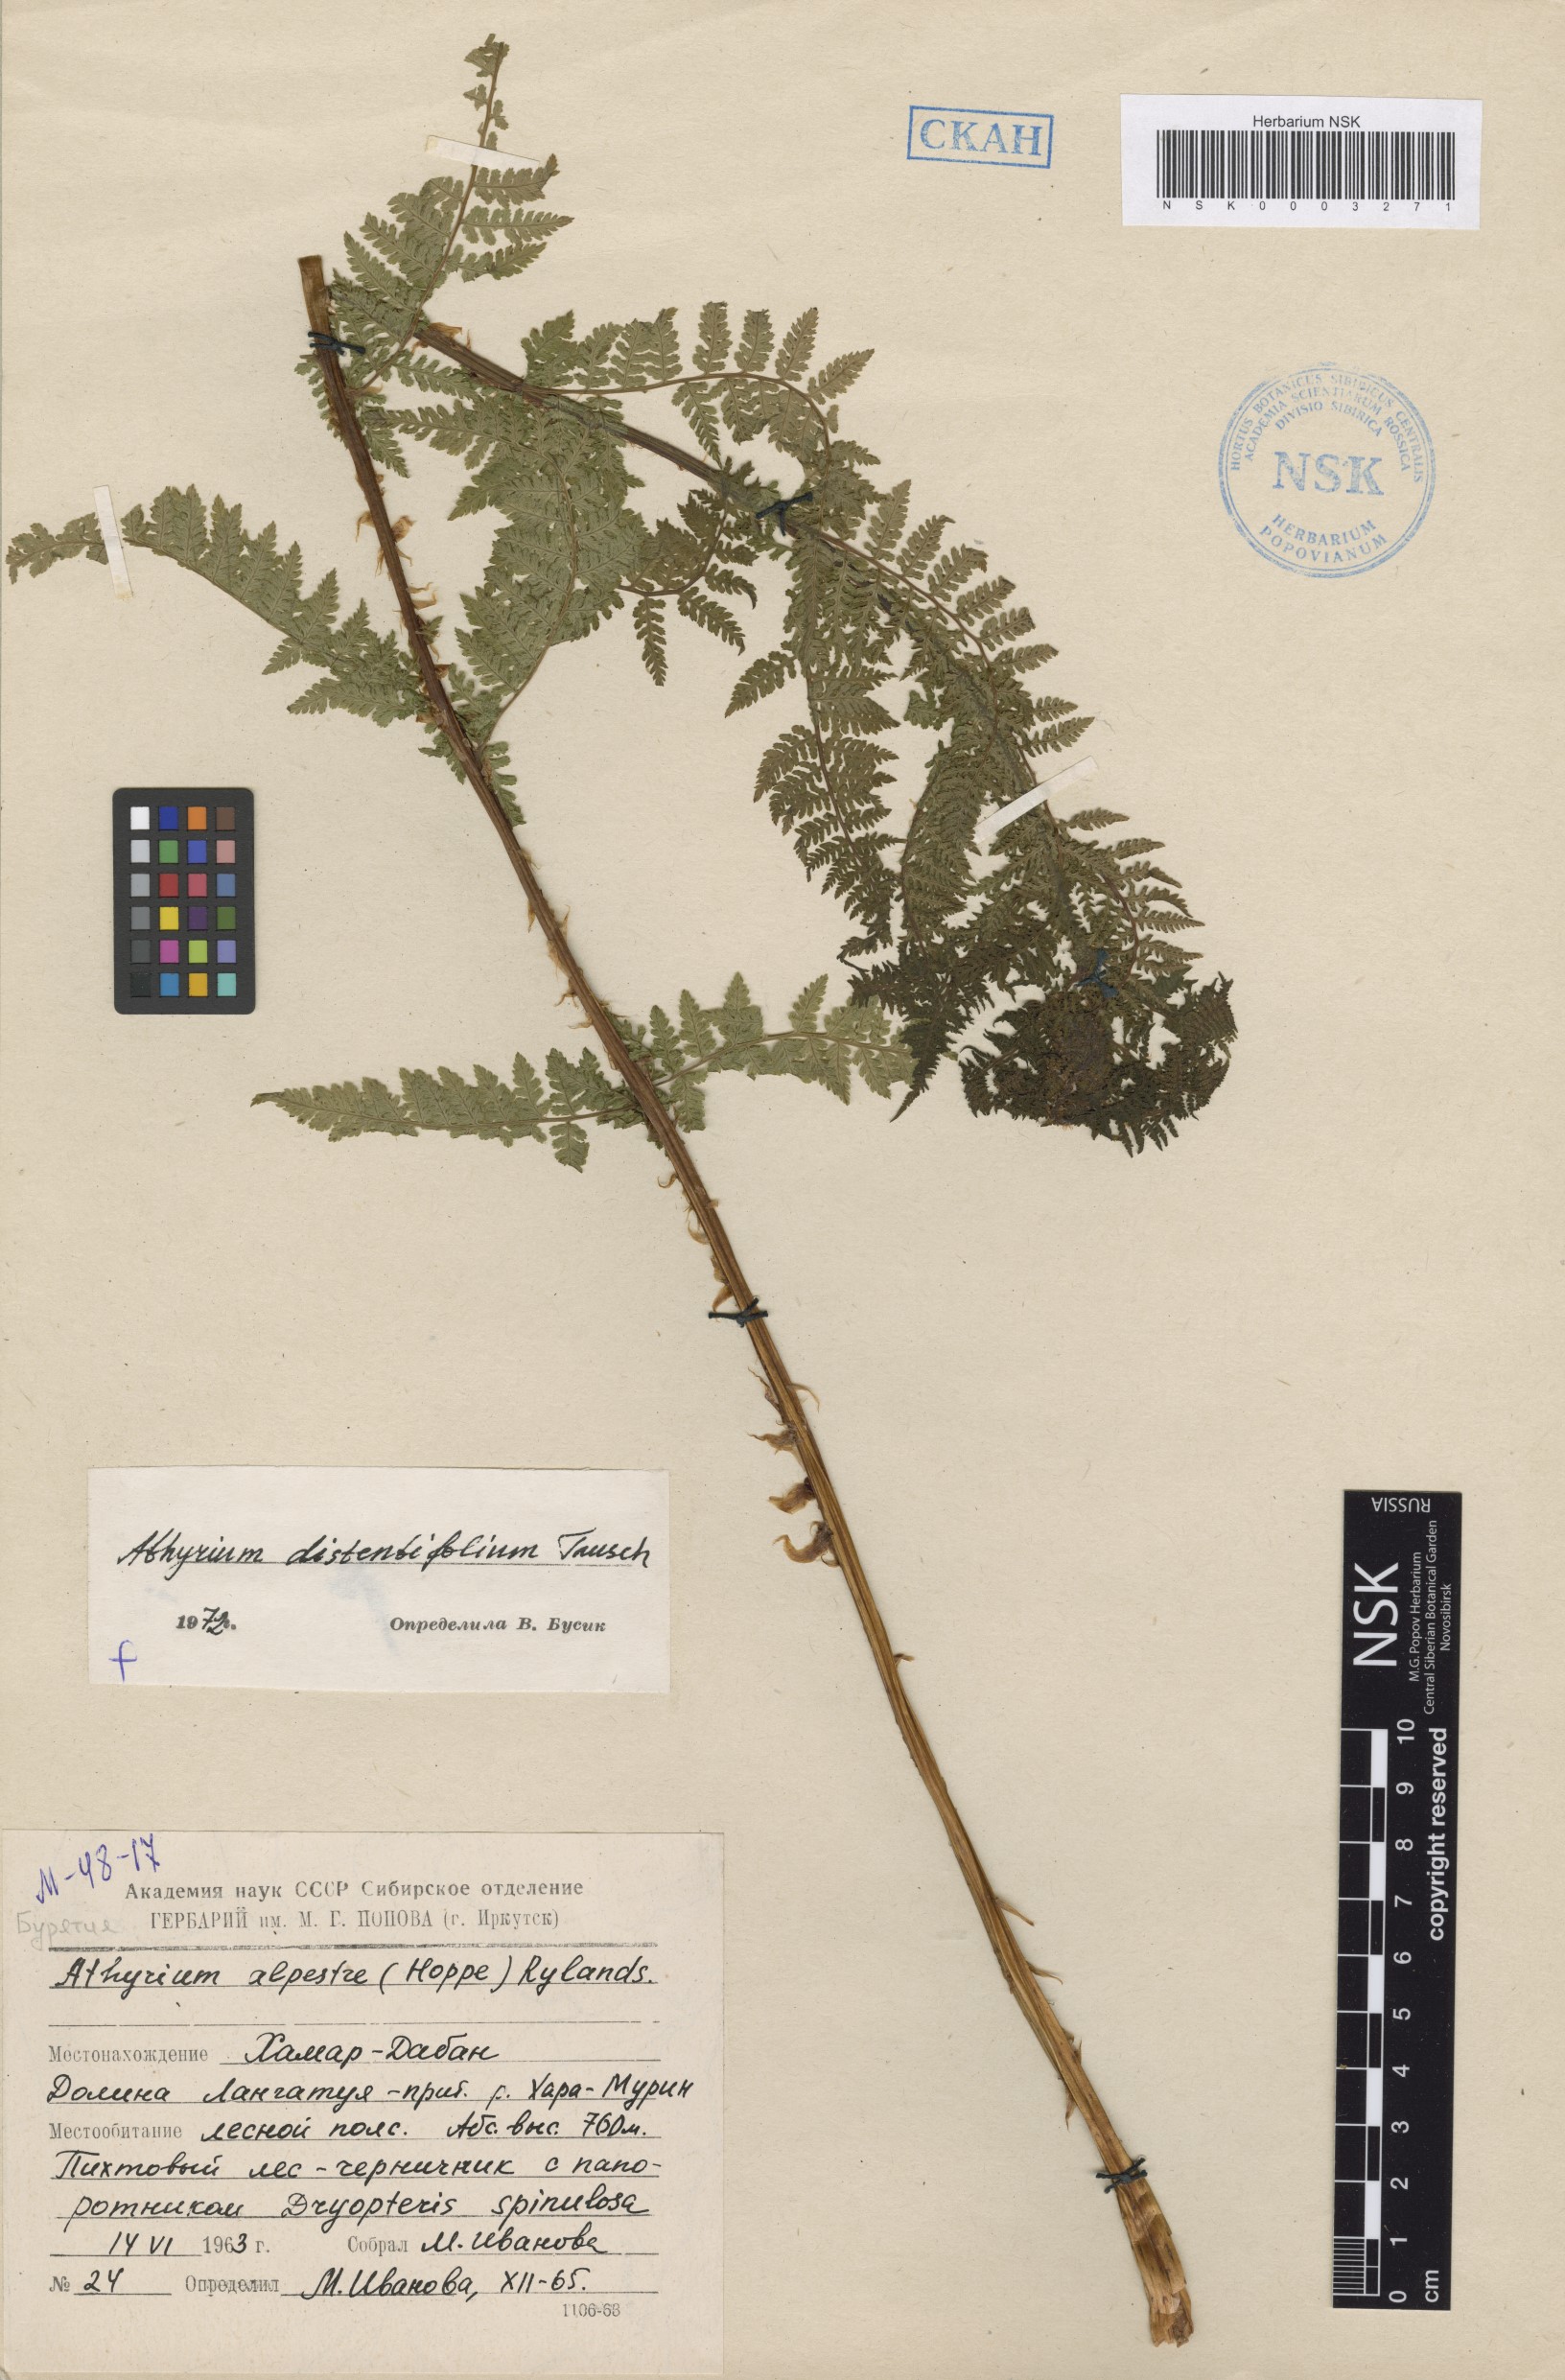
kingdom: Plantae
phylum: Tracheophyta
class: Polypodiopsida
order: Polypodiales
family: Athyriaceae
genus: Pseudathyrium
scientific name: Pseudathyrium alpestre
